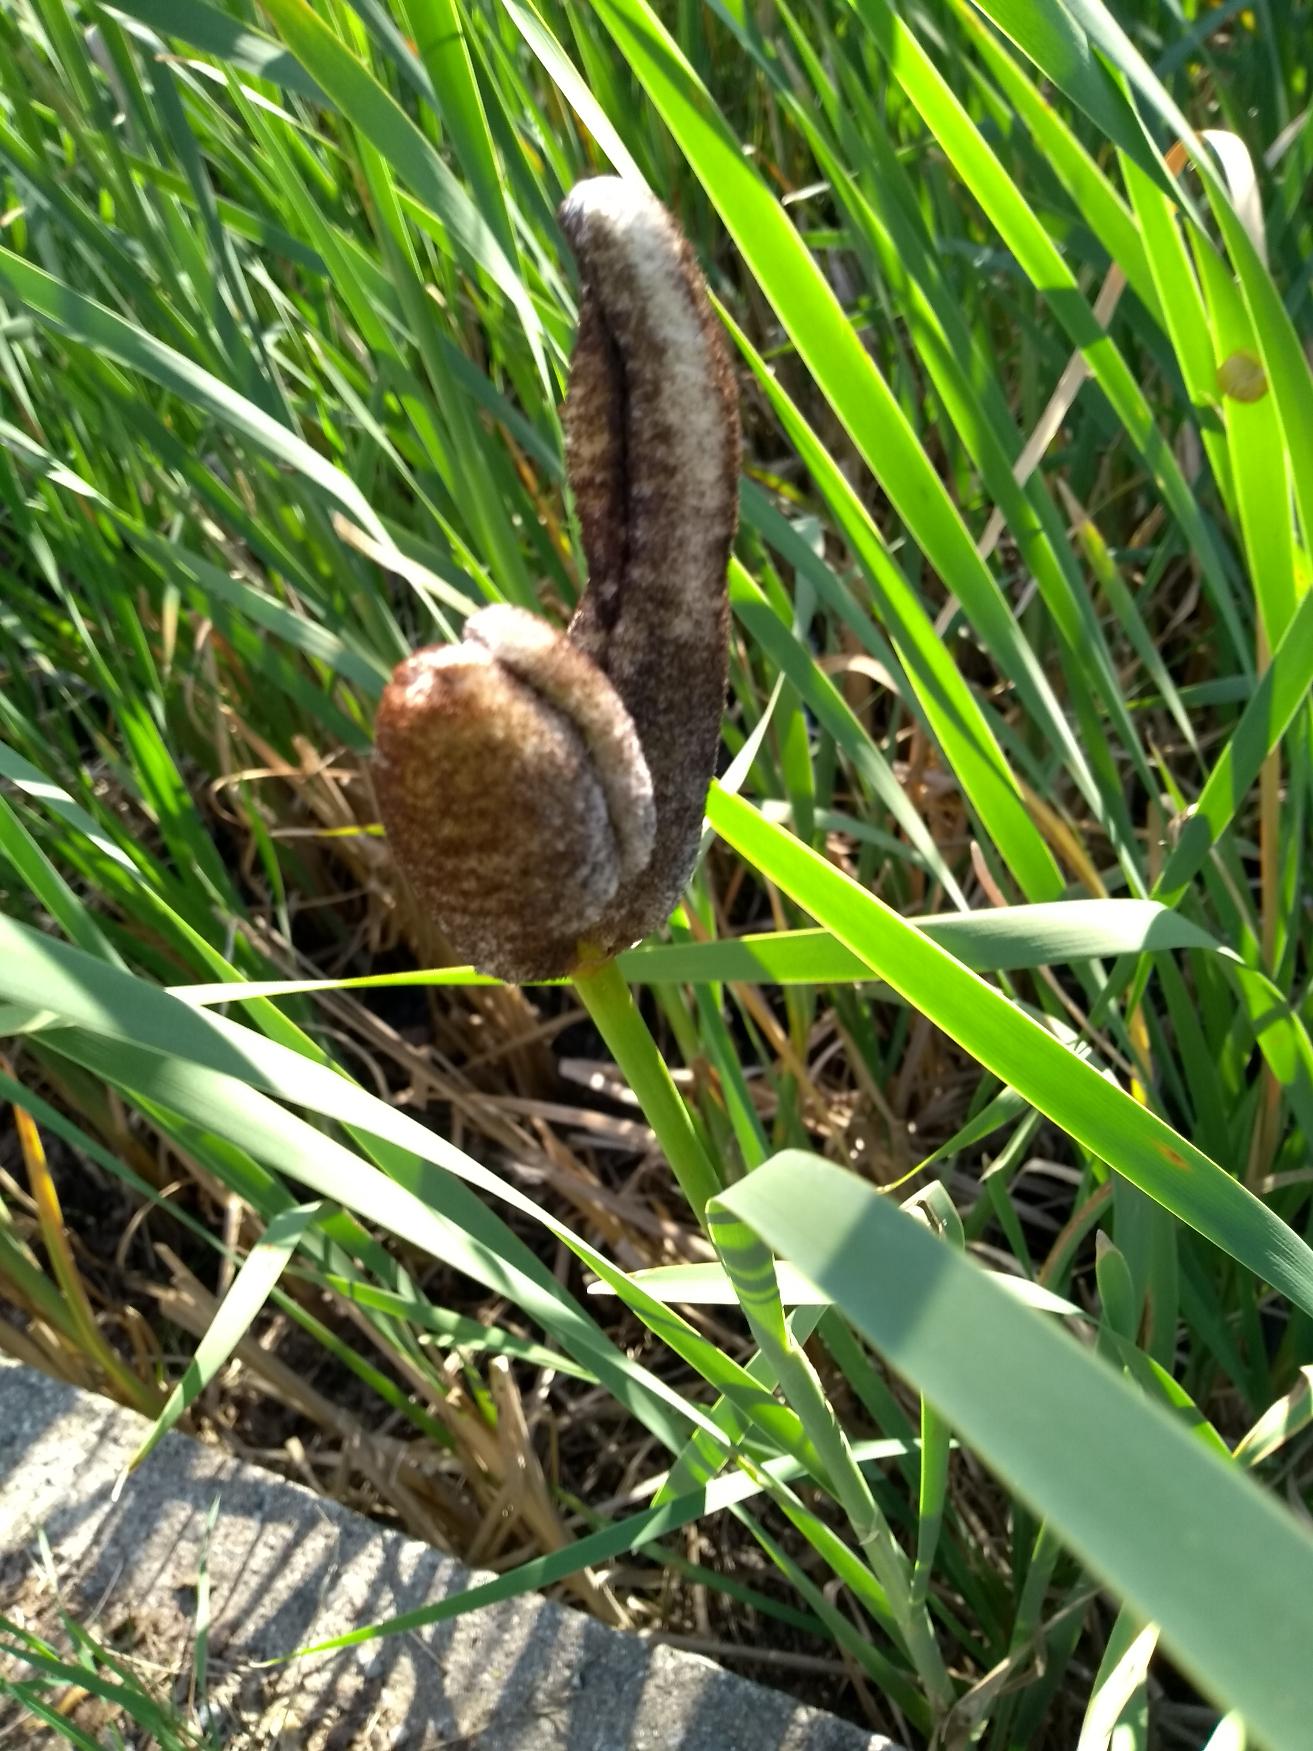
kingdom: Plantae
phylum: Tracheophyta
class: Liliopsida
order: Poales
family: Typhaceae
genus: Typha
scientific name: Typha latifolia
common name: Bredbladet dunhammer
